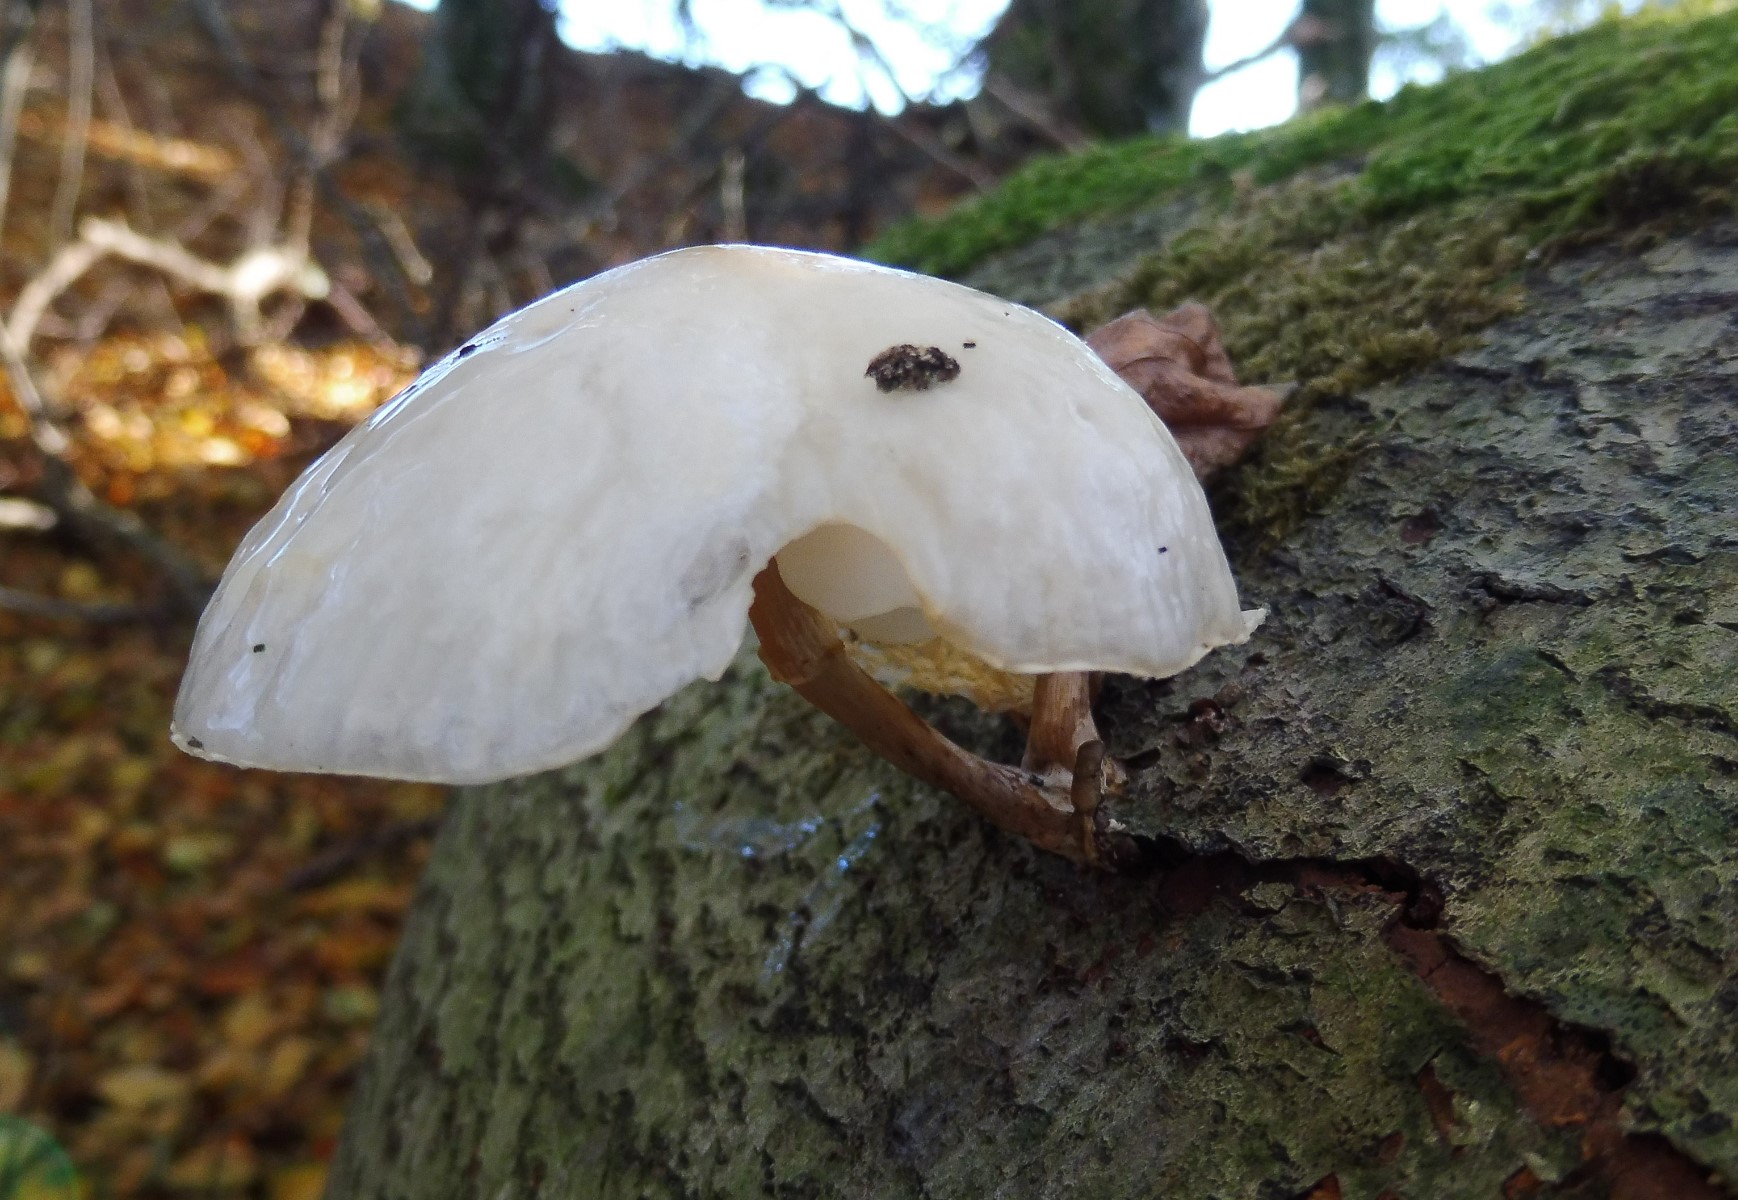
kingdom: Fungi
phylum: Basidiomycota
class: Agaricomycetes
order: Agaricales
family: Physalacriaceae
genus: Mucidula
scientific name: Mucidula mucida
